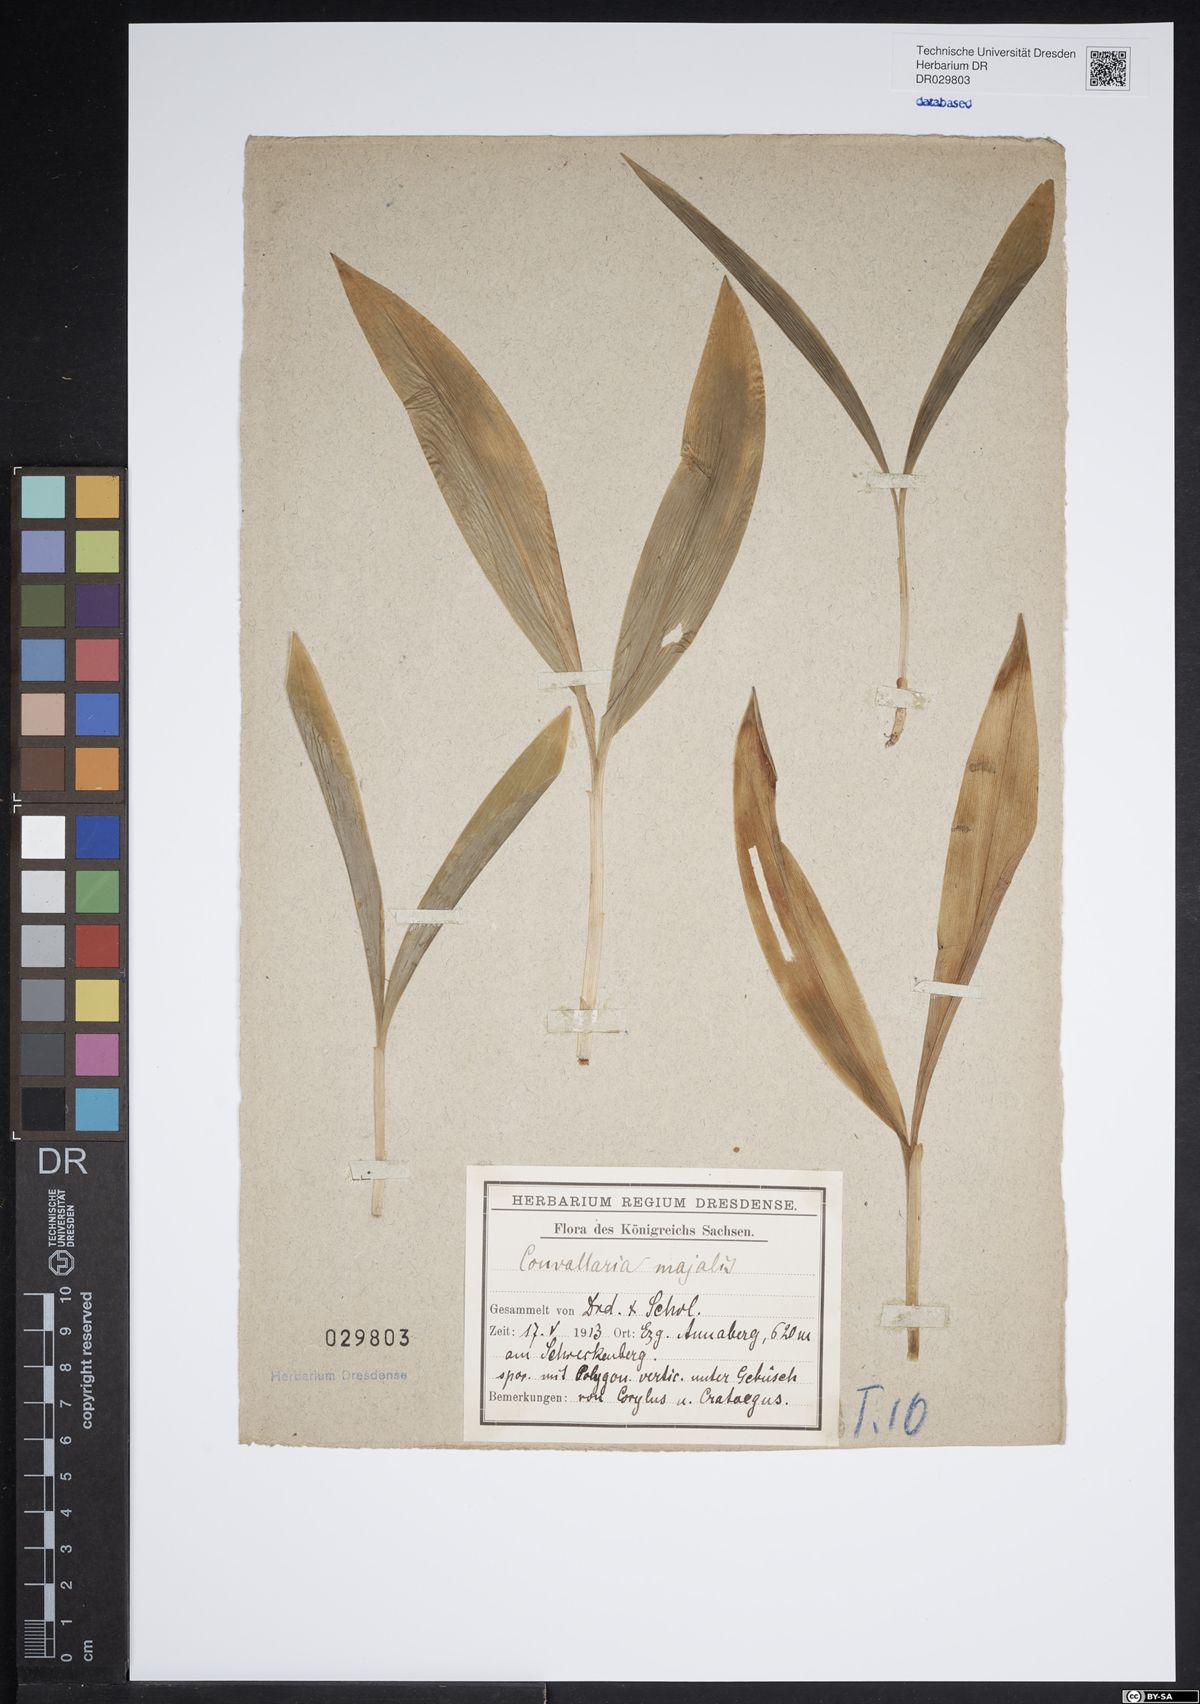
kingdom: Plantae
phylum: Tracheophyta
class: Liliopsida
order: Asparagales
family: Asparagaceae
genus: Convallaria
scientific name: Convallaria majalis
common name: Lily-of-the-valley
